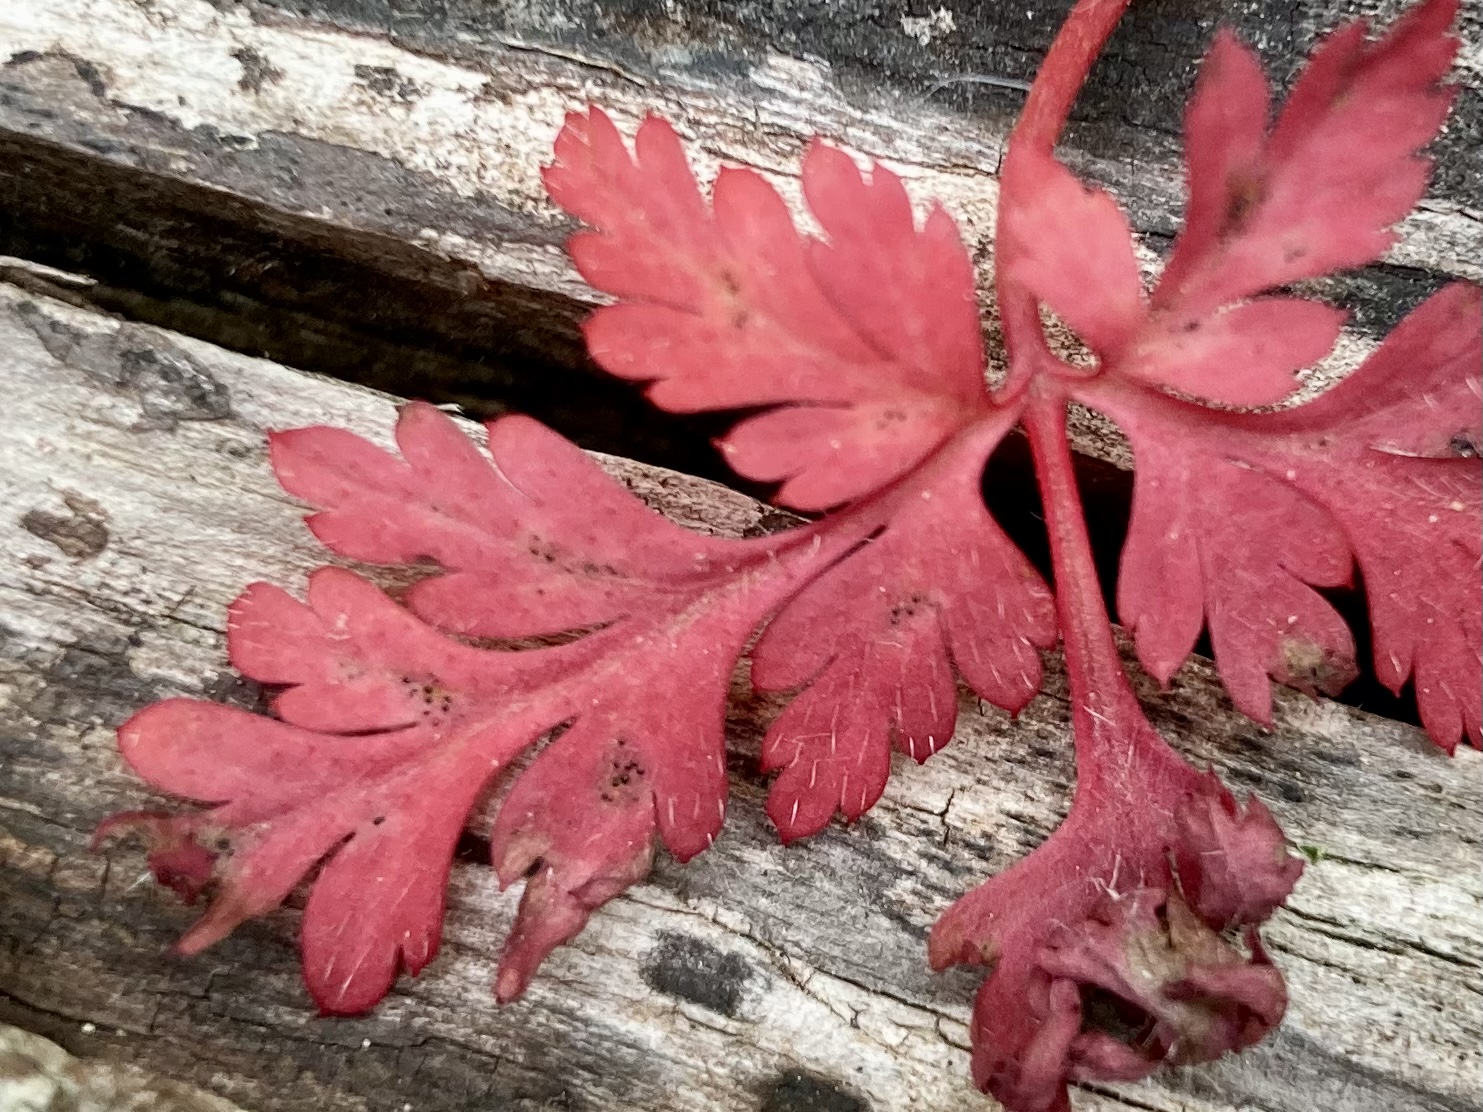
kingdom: Fungi
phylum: Ascomycota
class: Dothideomycetes
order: Venturiales
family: Venturiaceae
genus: Coleroa
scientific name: Coleroa robertiani
